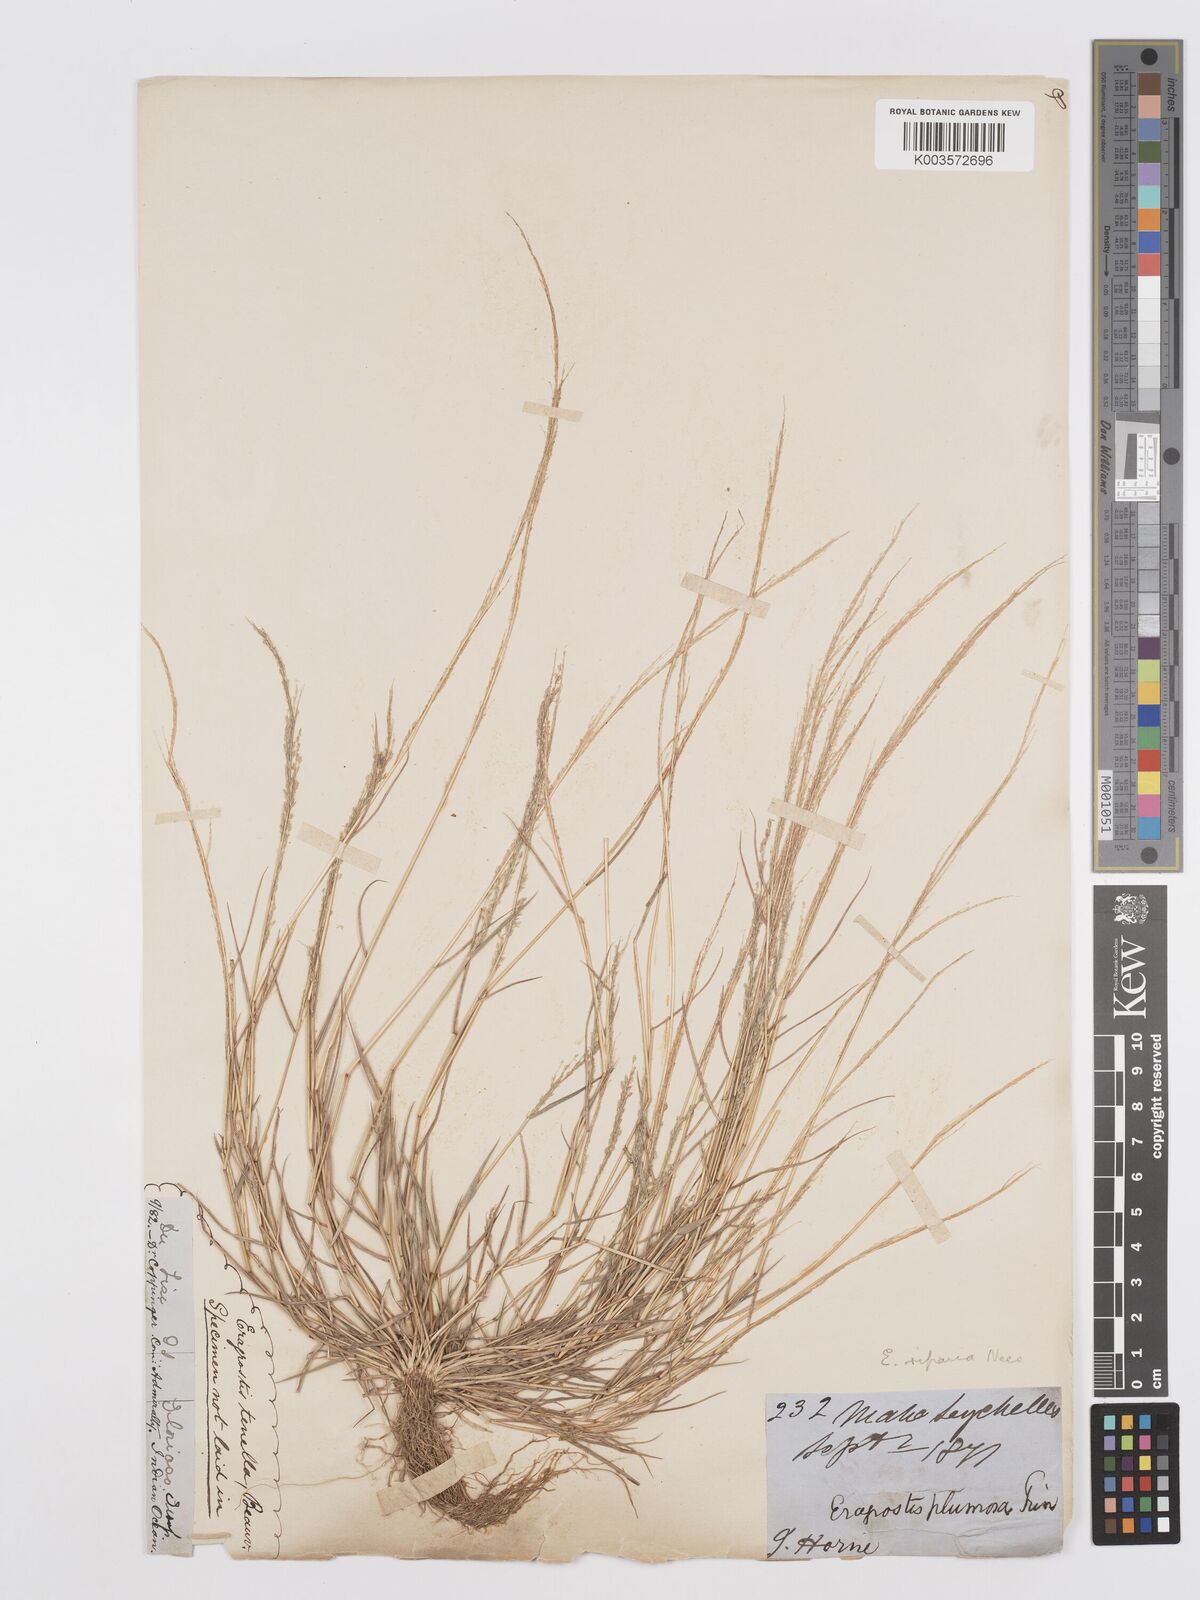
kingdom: Plantae
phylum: Tracheophyta
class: Liliopsida
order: Poales
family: Poaceae
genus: Eragrostis
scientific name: Eragrostis tenella
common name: Japanese lovegrass
